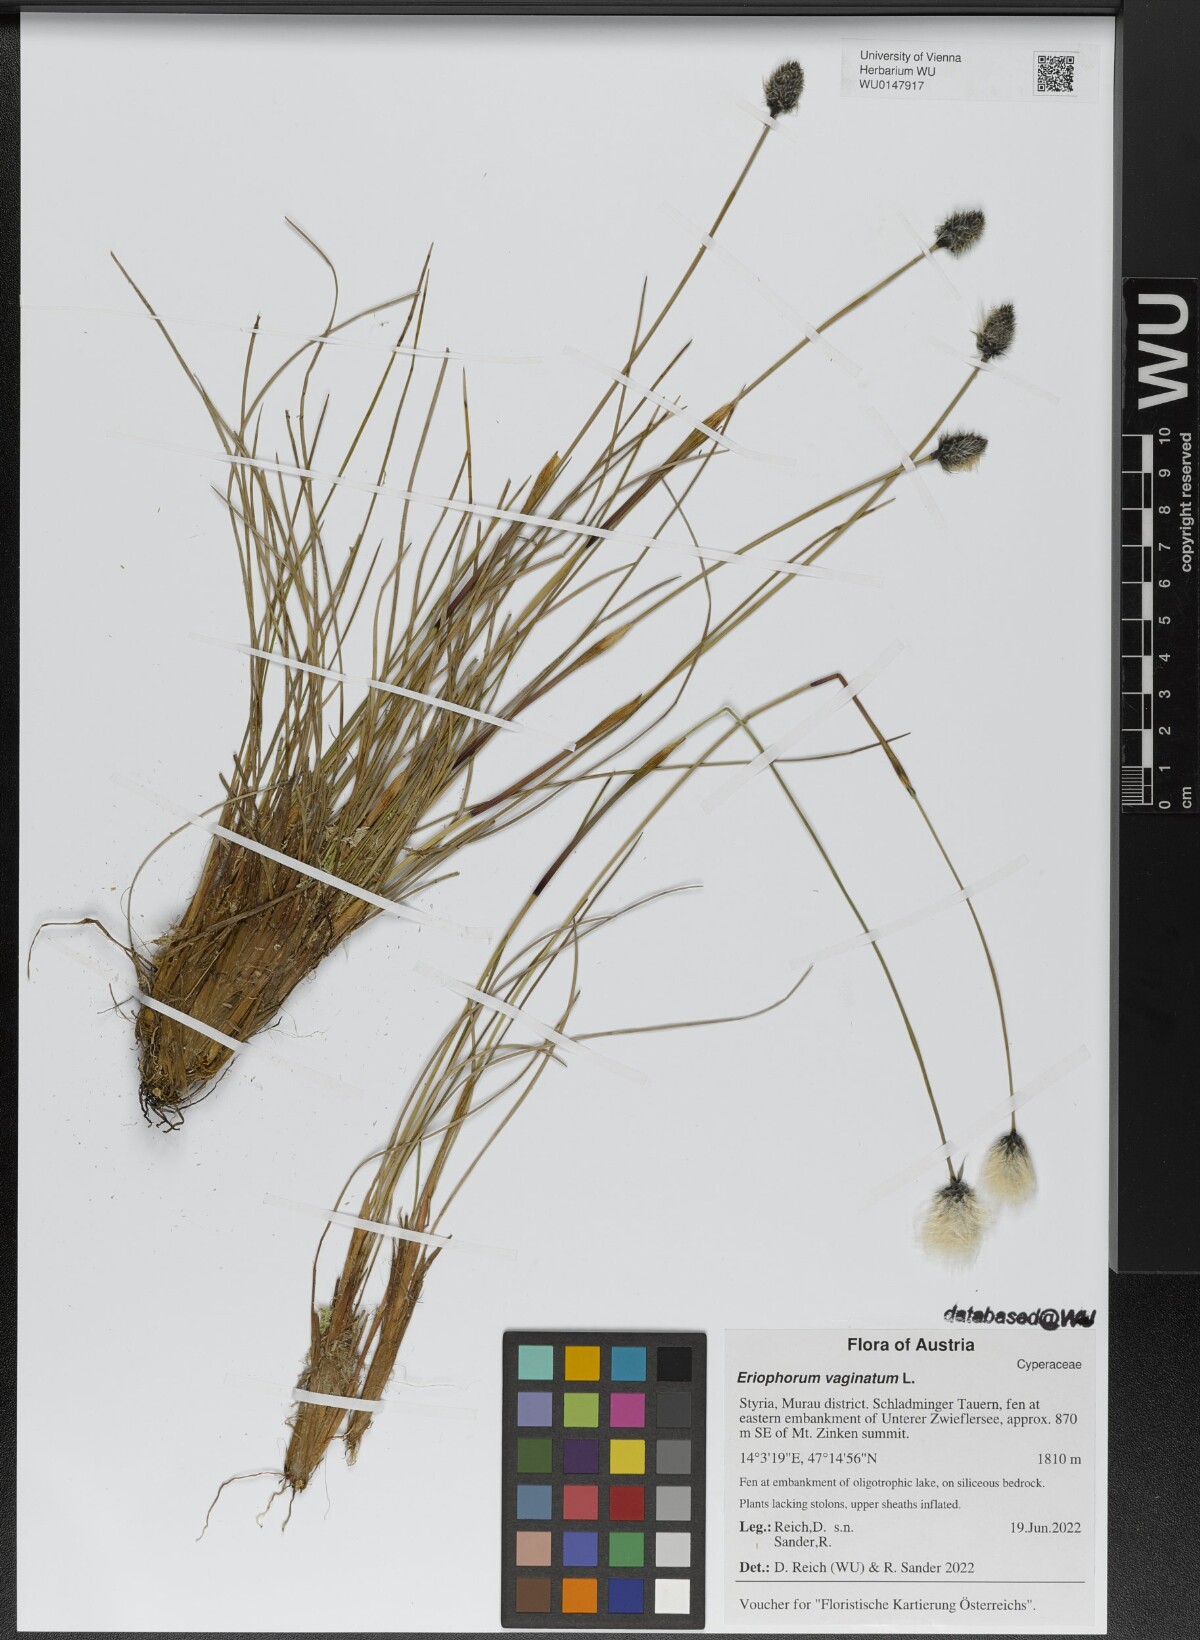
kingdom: Plantae
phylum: Tracheophyta
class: Liliopsida
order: Poales
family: Cyperaceae
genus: Eriophorum
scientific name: Eriophorum vaginatum
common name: Hare's-tail cottongrass
